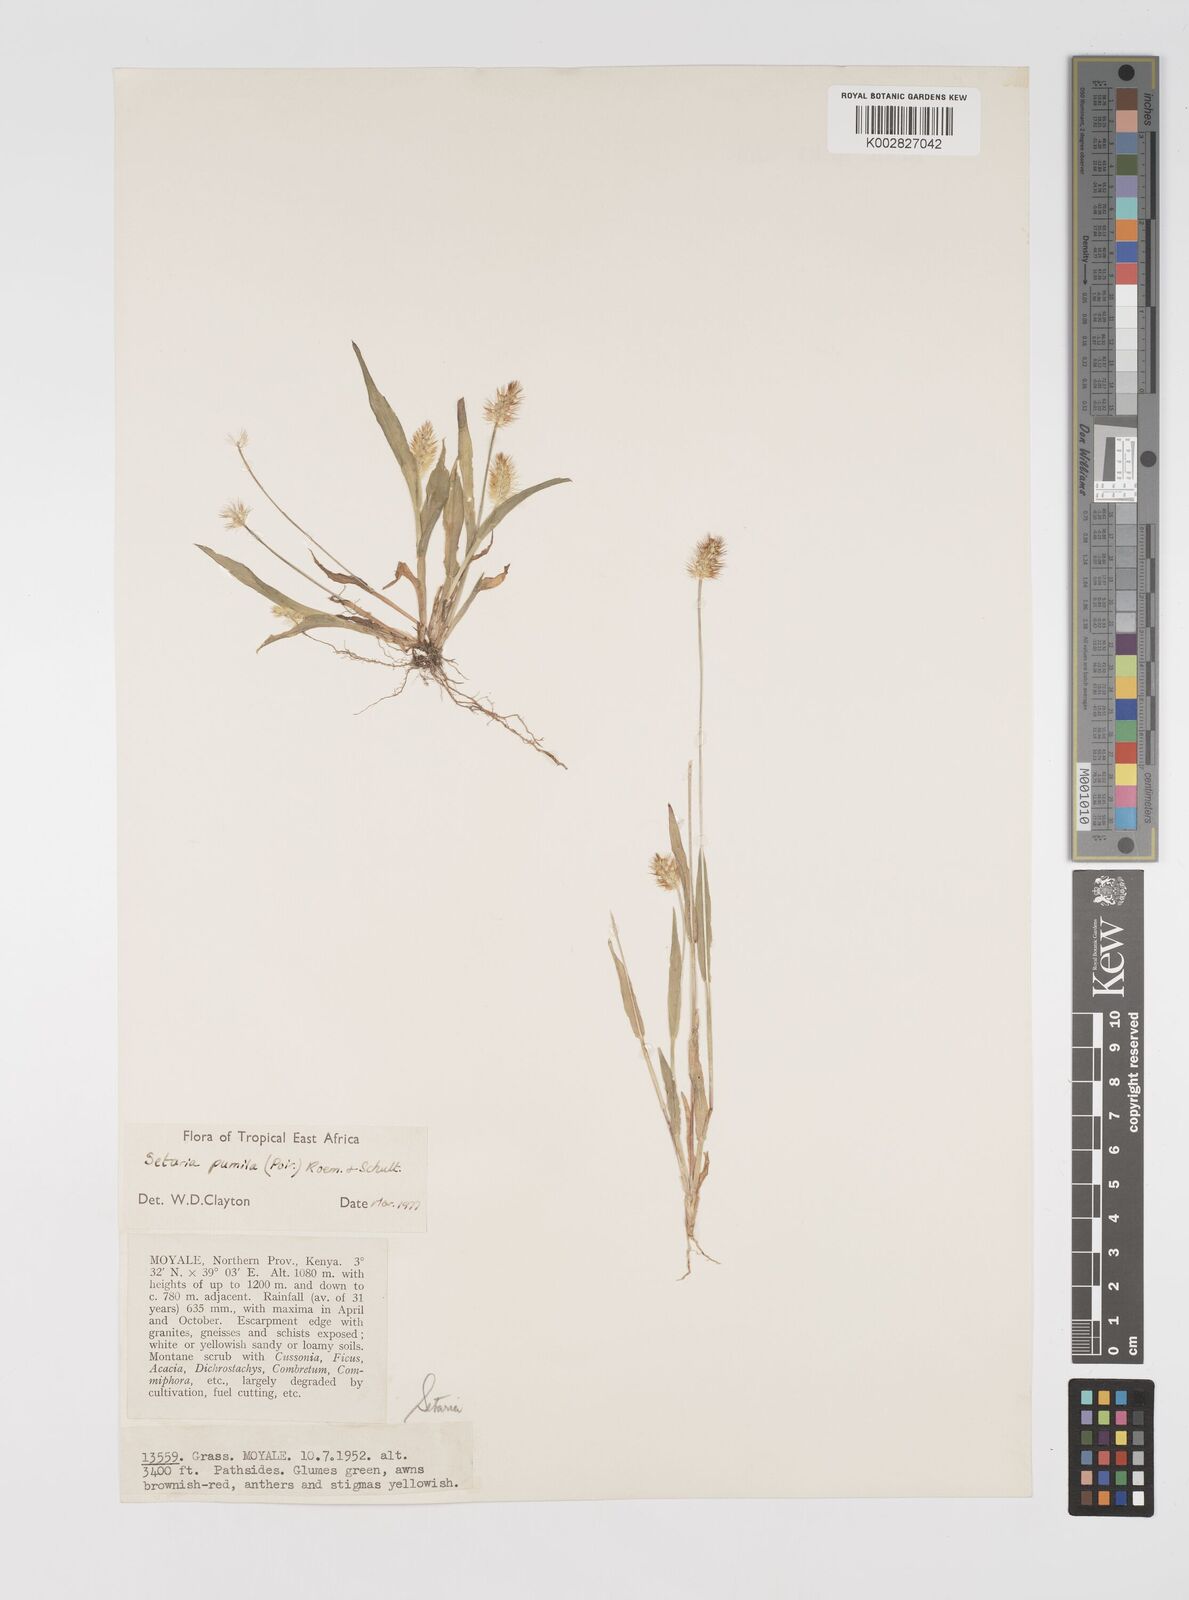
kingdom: Plantae
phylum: Tracheophyta
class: Liliopsida
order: Poales
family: Poaceae
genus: Setaria
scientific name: Setaria pumila
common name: Yellow bristle-grass
